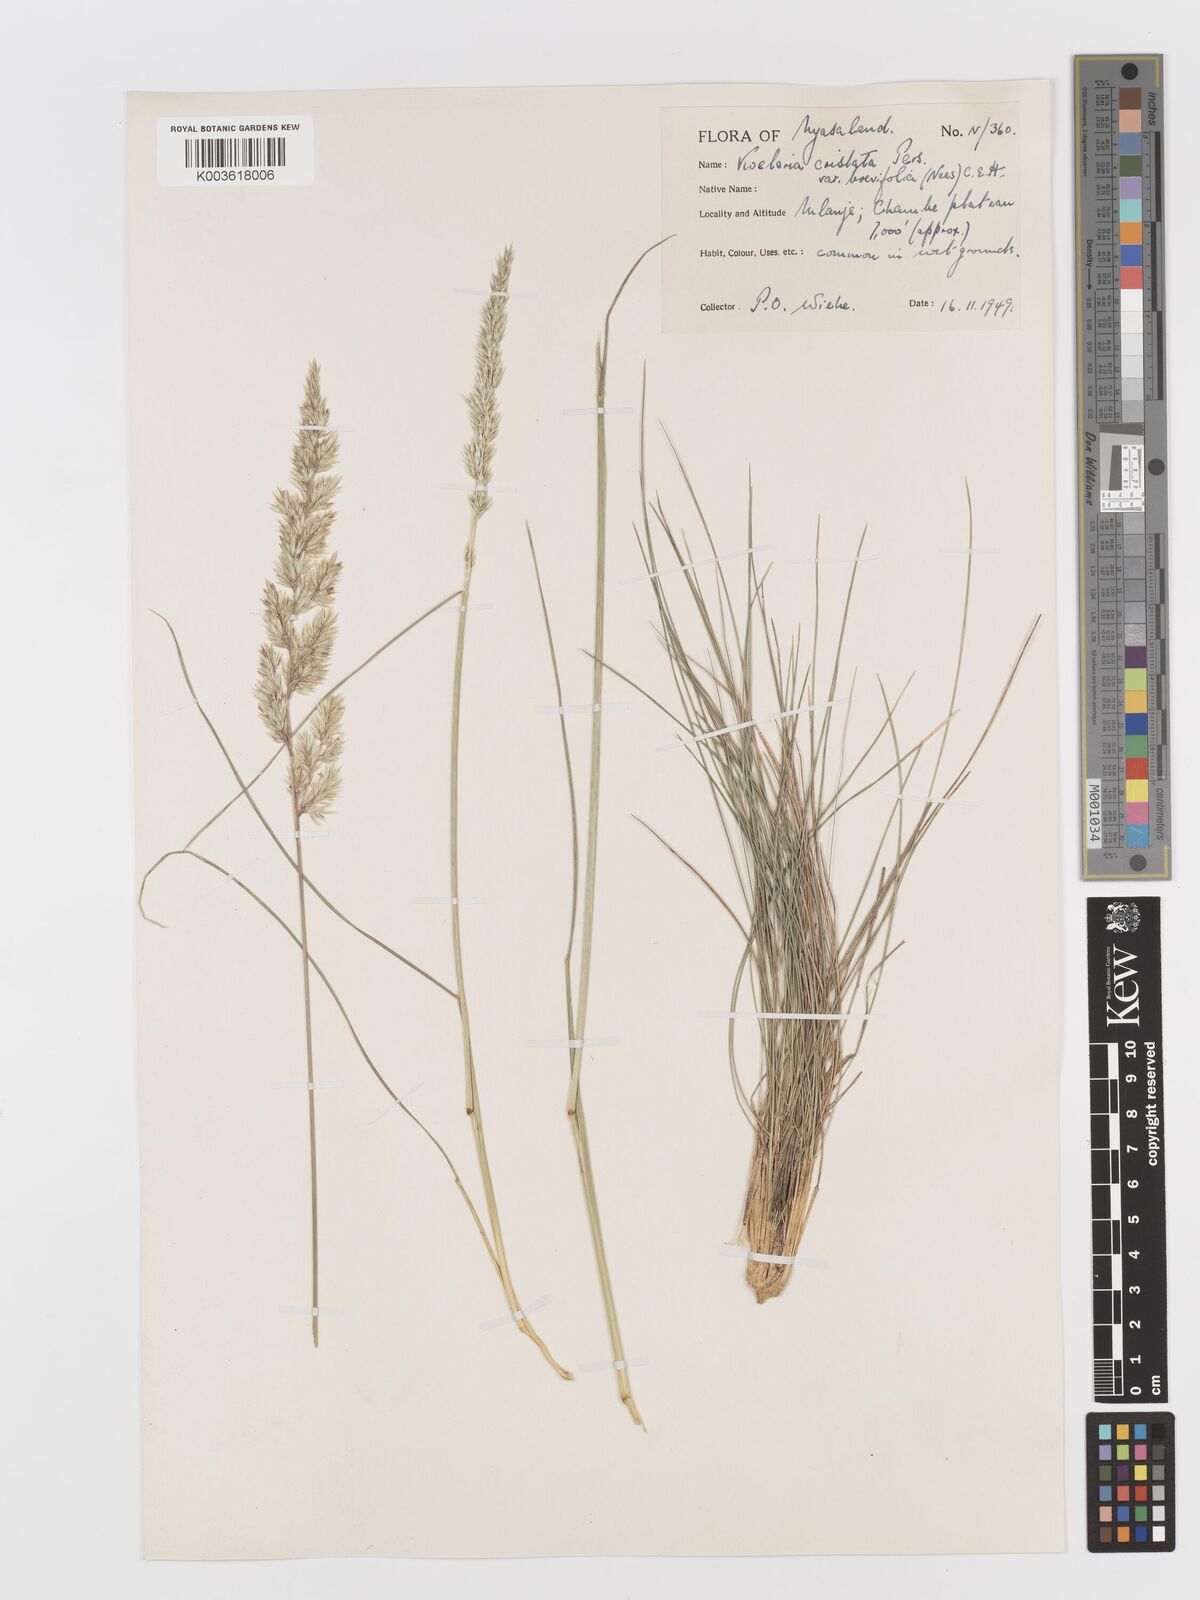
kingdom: Plantae
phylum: Tracheophyta
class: Liliopsida
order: Poales
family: Poaceae
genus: Koeleria
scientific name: Koeleria capensis
